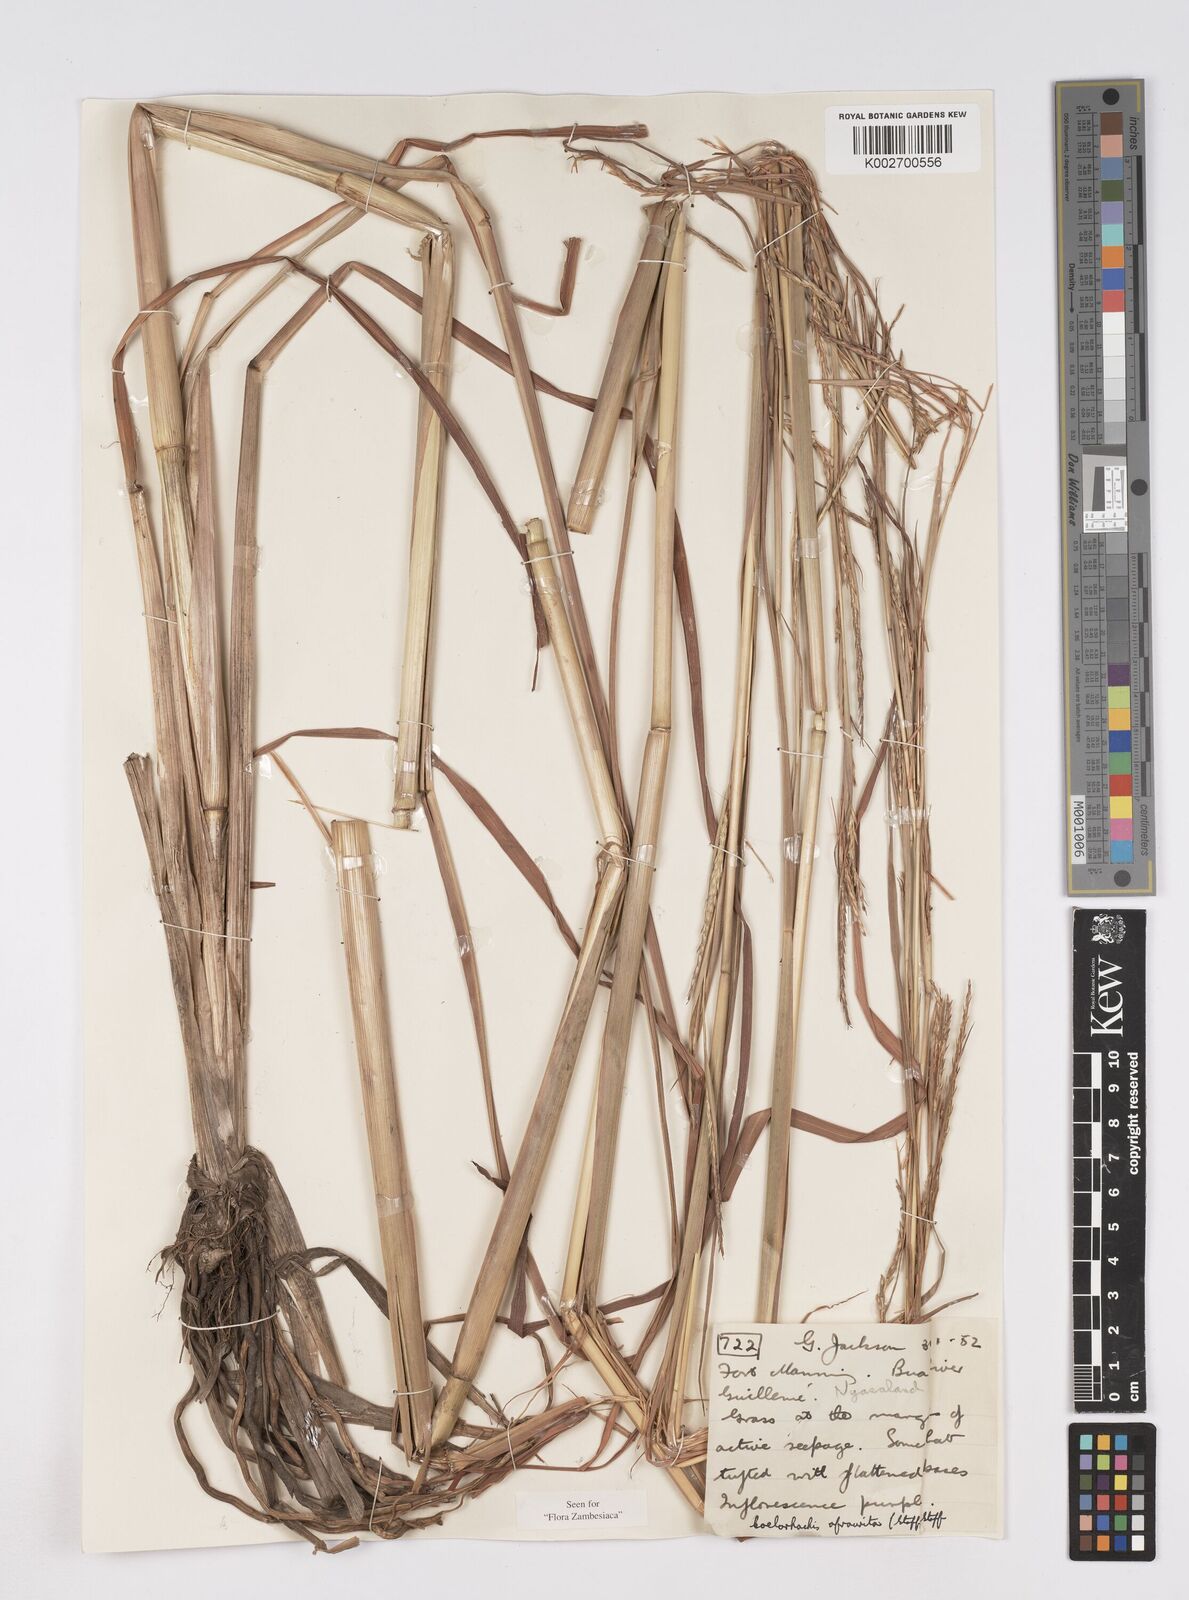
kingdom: Plantae
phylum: Tracheophyta
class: Liliopsida
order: Poales
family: Poaceae
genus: Rottboellia
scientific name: Rottboellia afraurita
